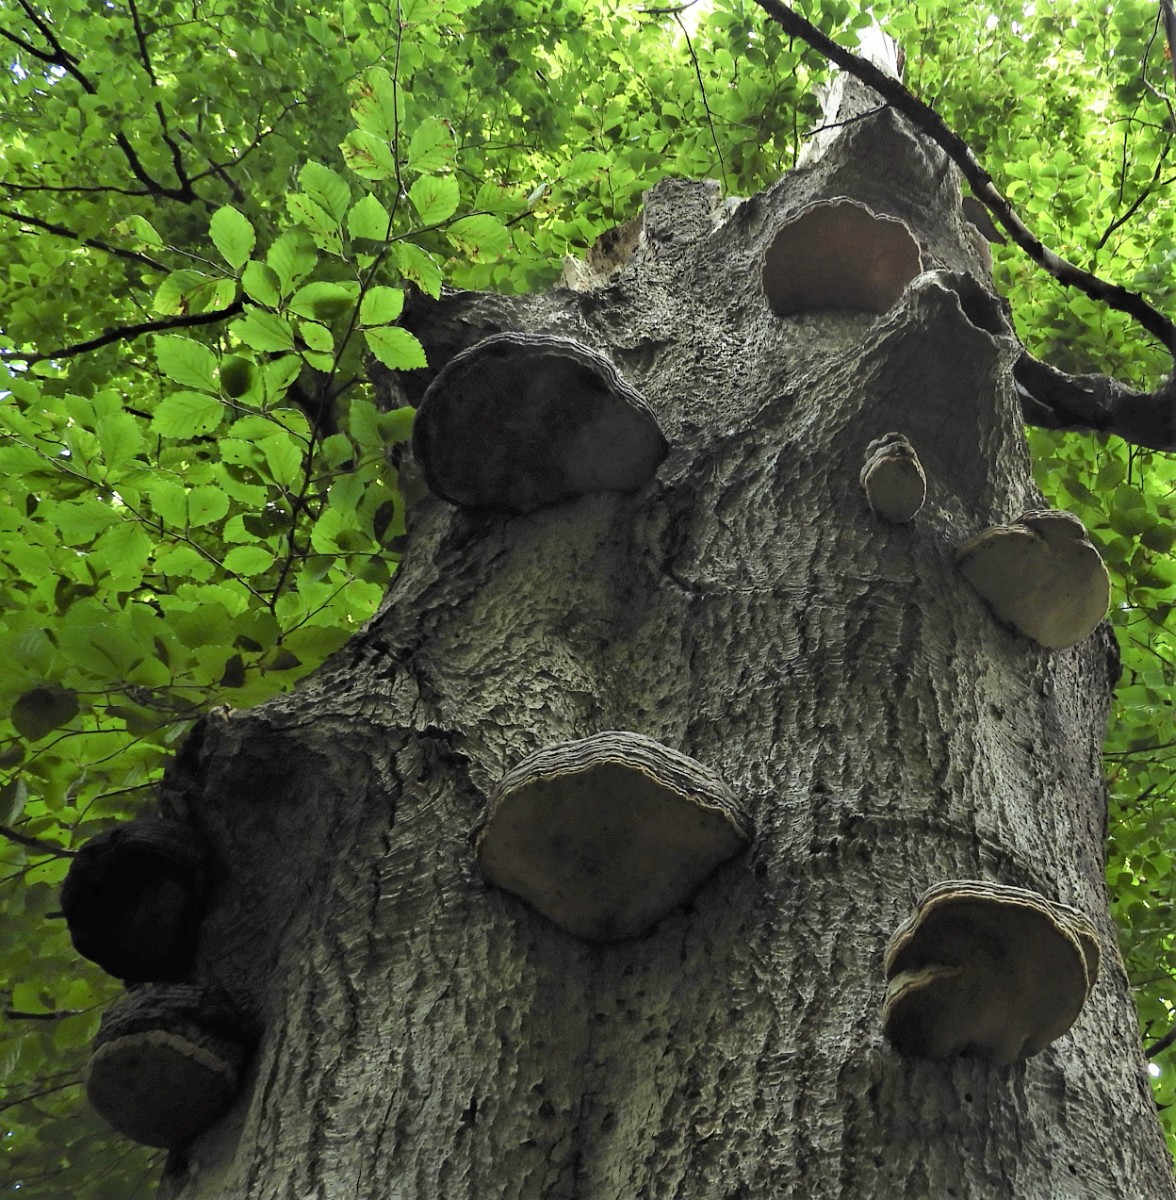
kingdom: Fungi
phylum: Basidiomycota
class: Agaricomycetes
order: Polyporales
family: Polyporaceae
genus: Fomes
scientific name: Fomes fomentarius
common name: tøndersvamp
